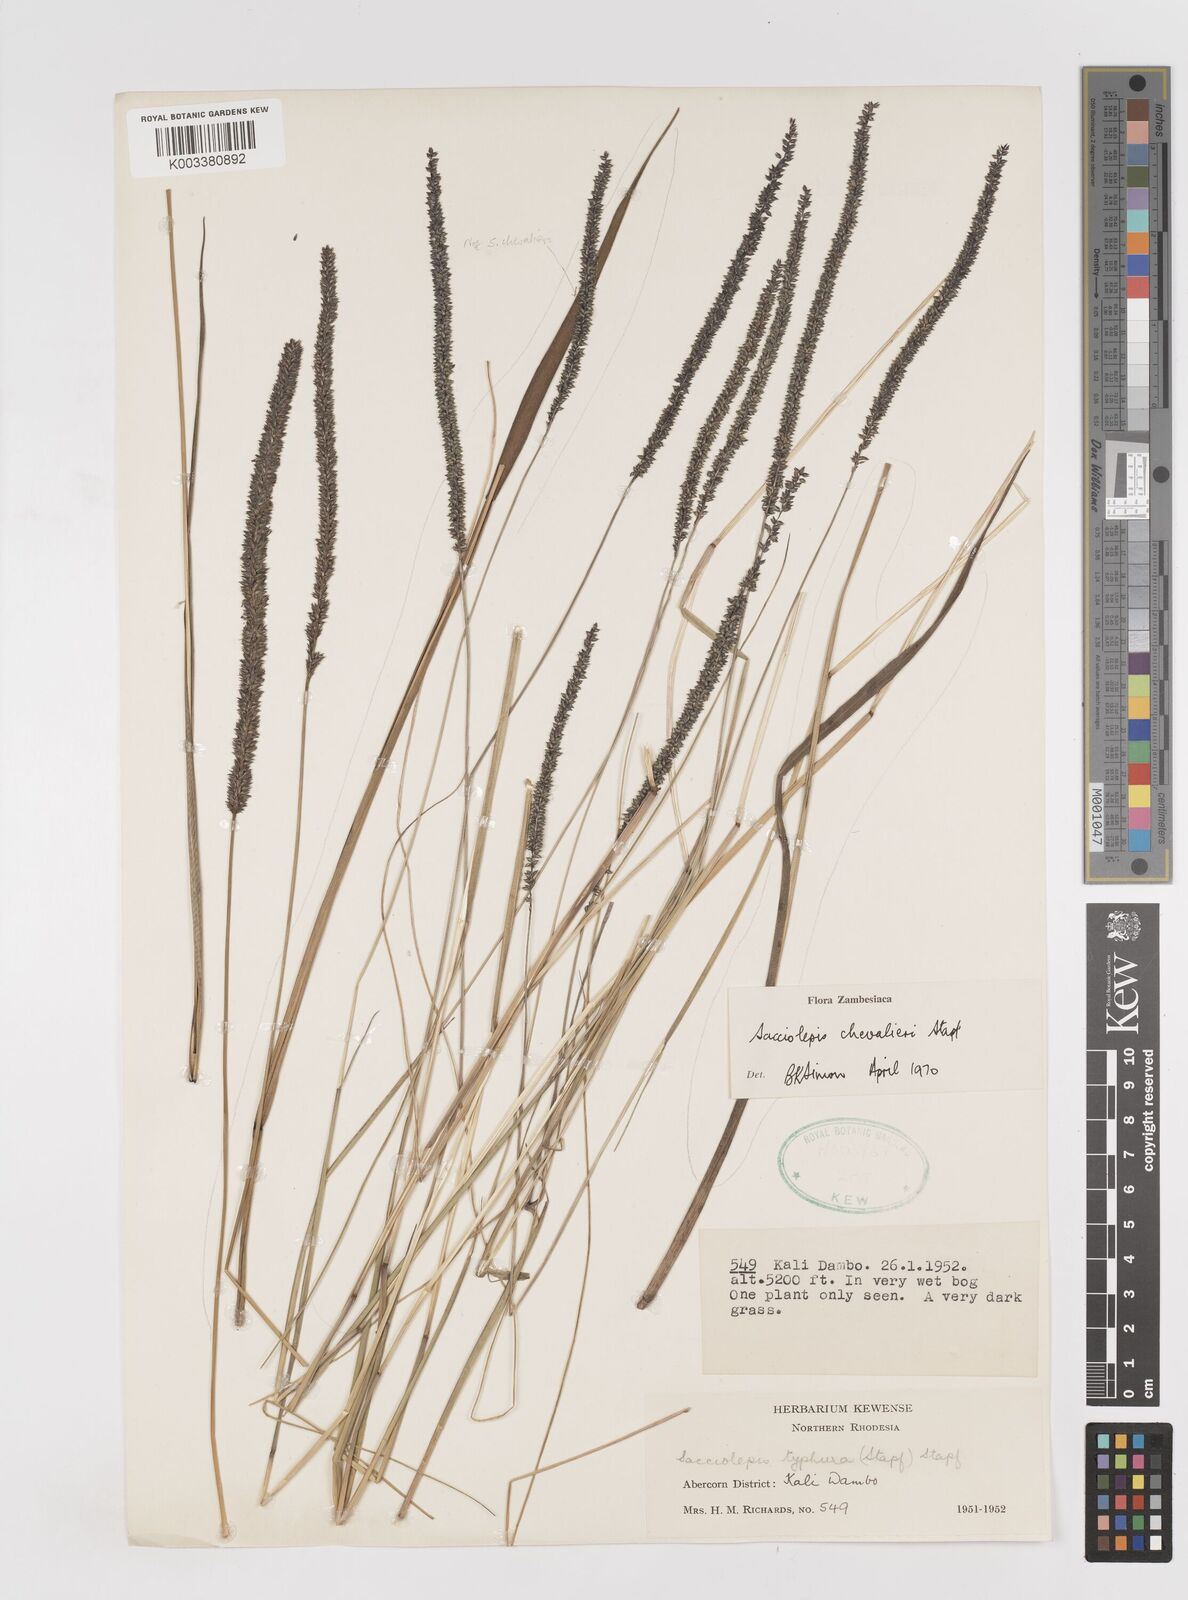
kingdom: Plantae
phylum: Tracheophyta
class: Liliopsida
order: Poales
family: Poaceae
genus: Sacciolepis
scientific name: Sacciolepis chevalieri
